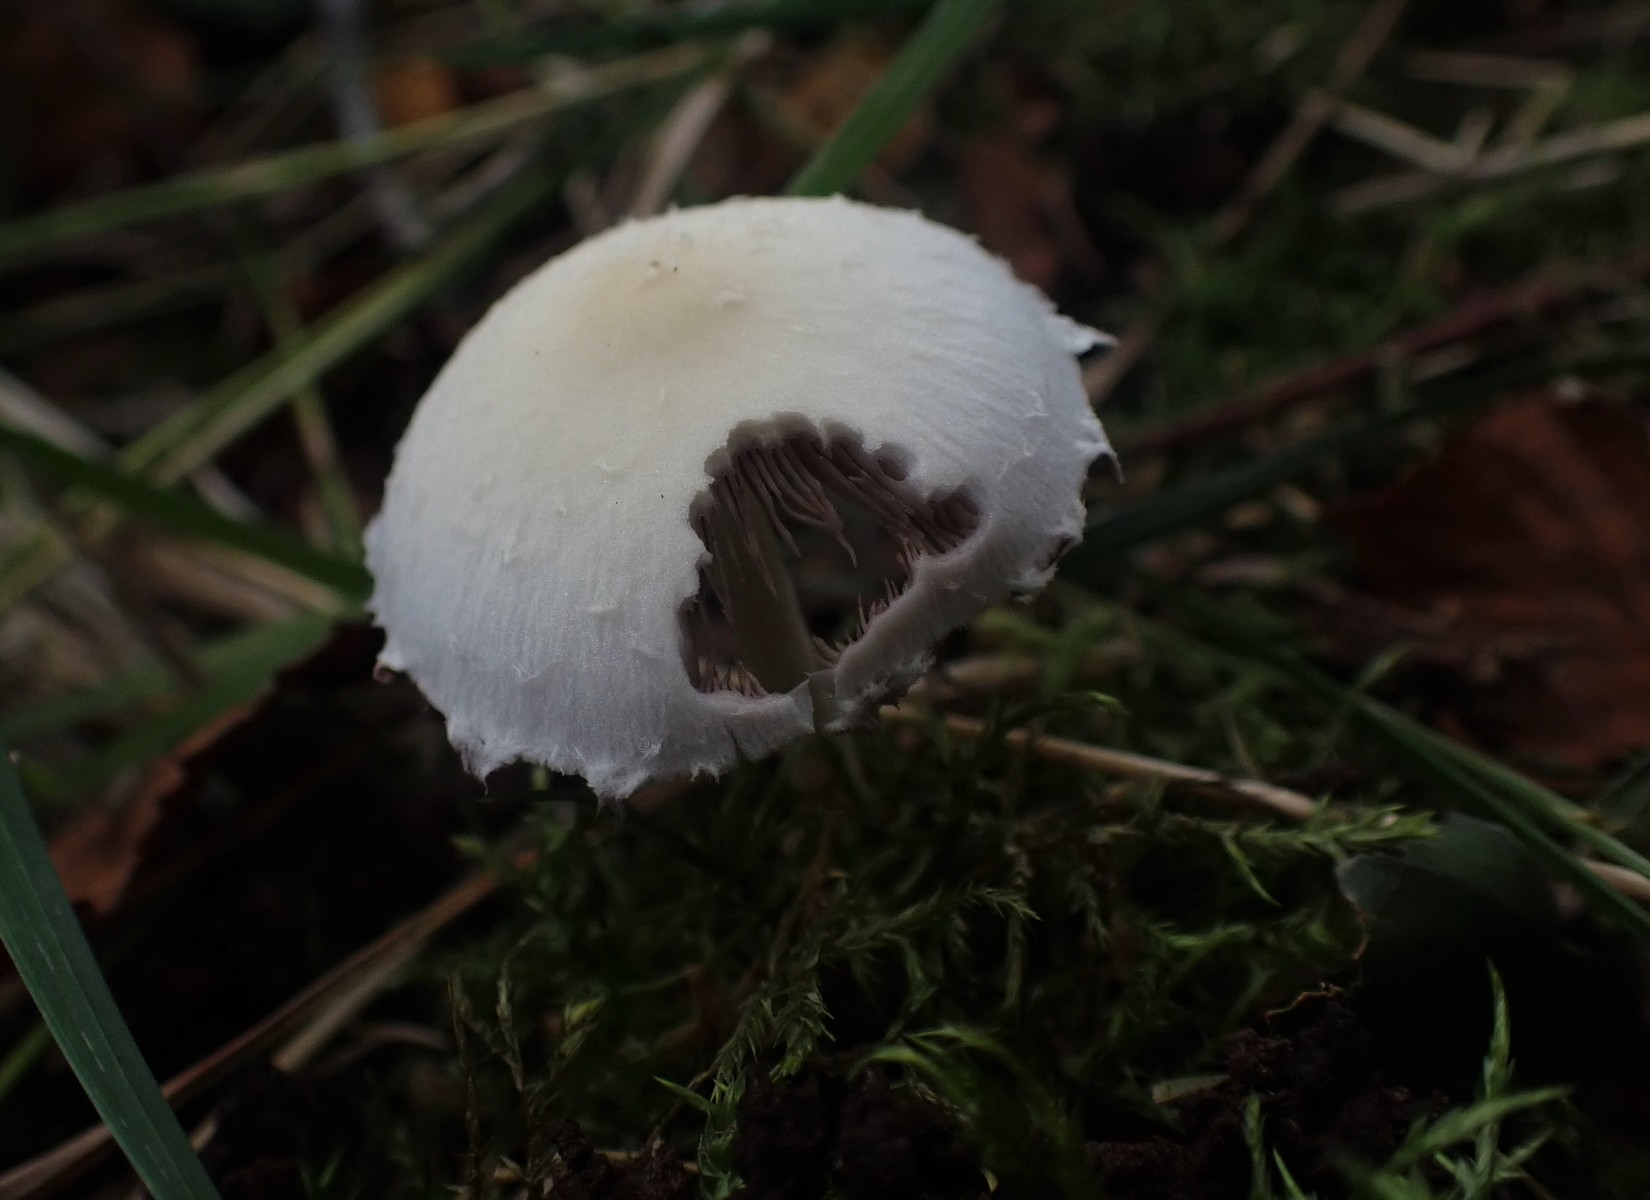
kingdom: Fungi
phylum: Basidiomycota
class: Agaricomycetes
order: Agaricales
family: Psathyrellaceae
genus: Candolleomyces
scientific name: Candolleomyces candolleanus
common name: Candolles mørkhat
